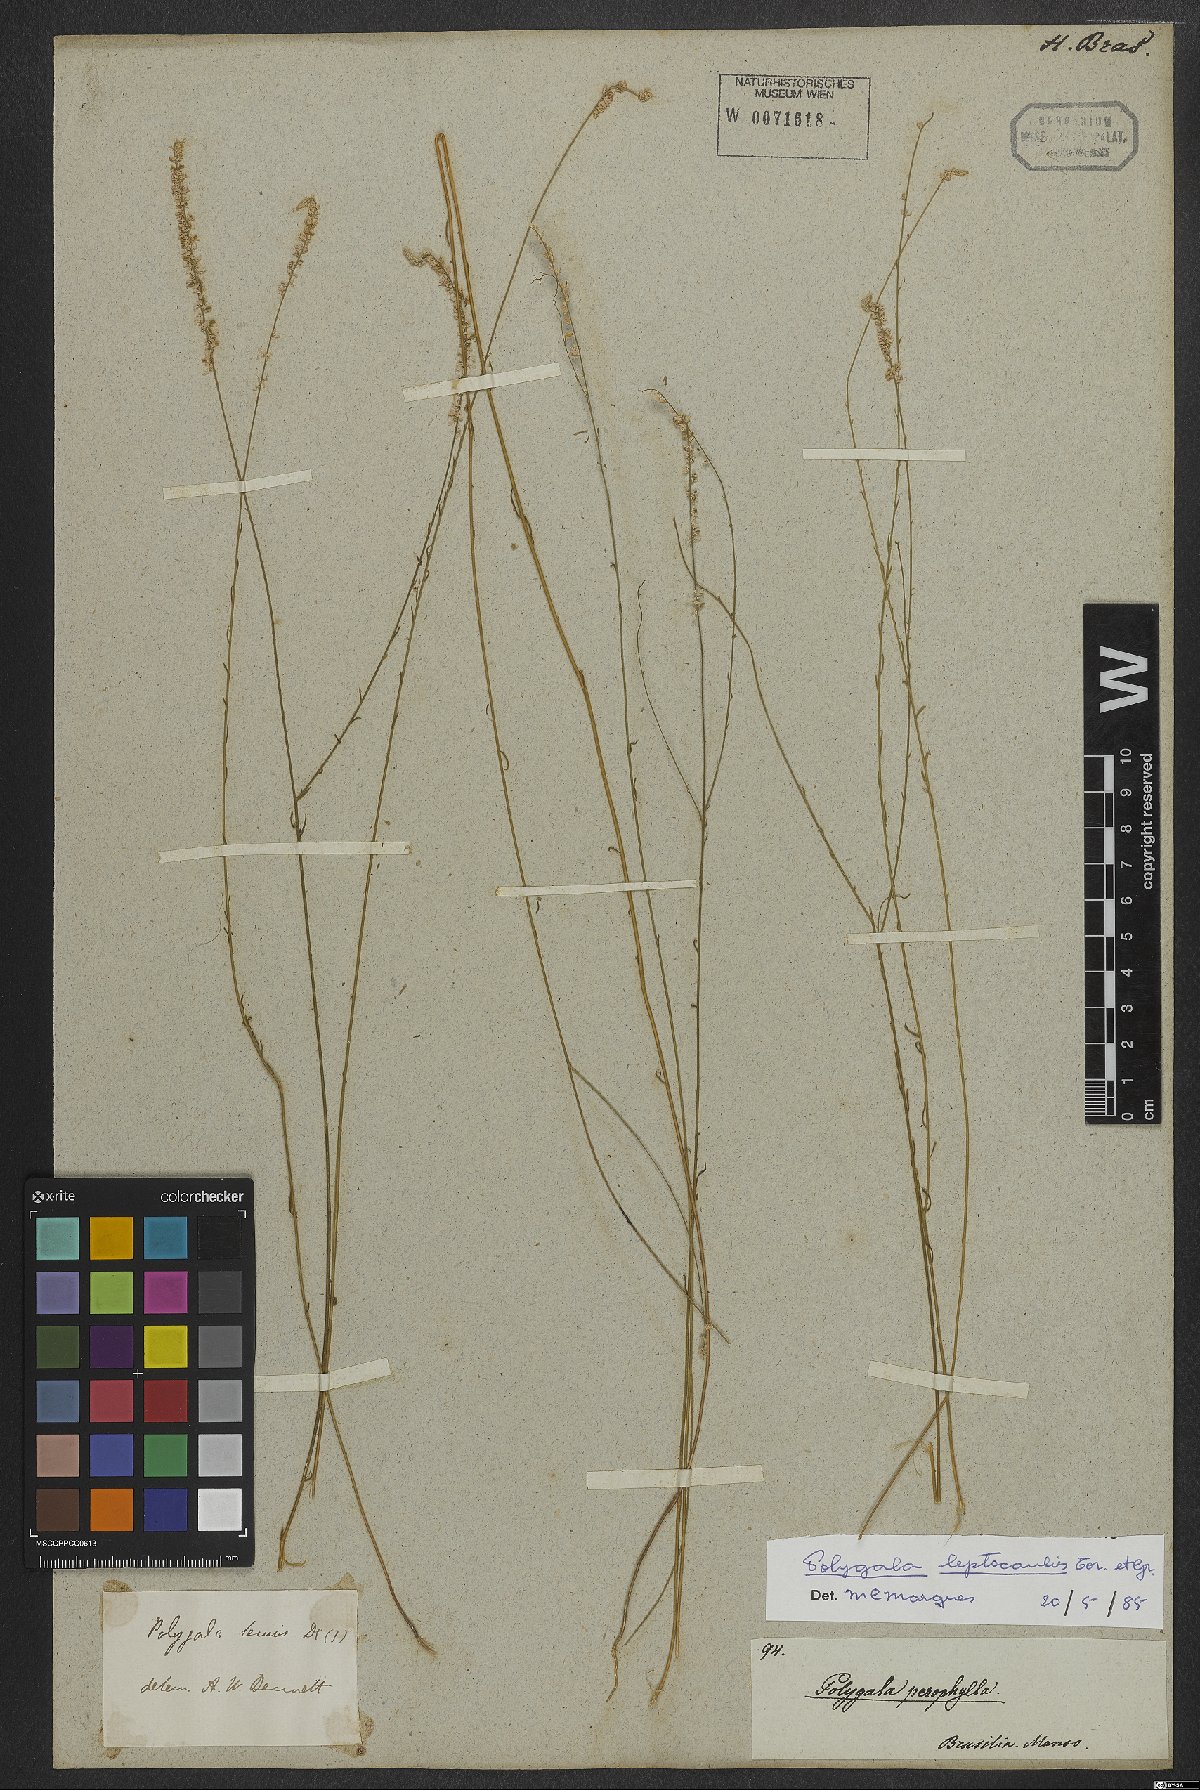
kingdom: Plantae
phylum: Tracheophyta
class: Magnoliopsida
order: Fabales
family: Polygalaceae
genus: Polygala
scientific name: Polygala tenella
